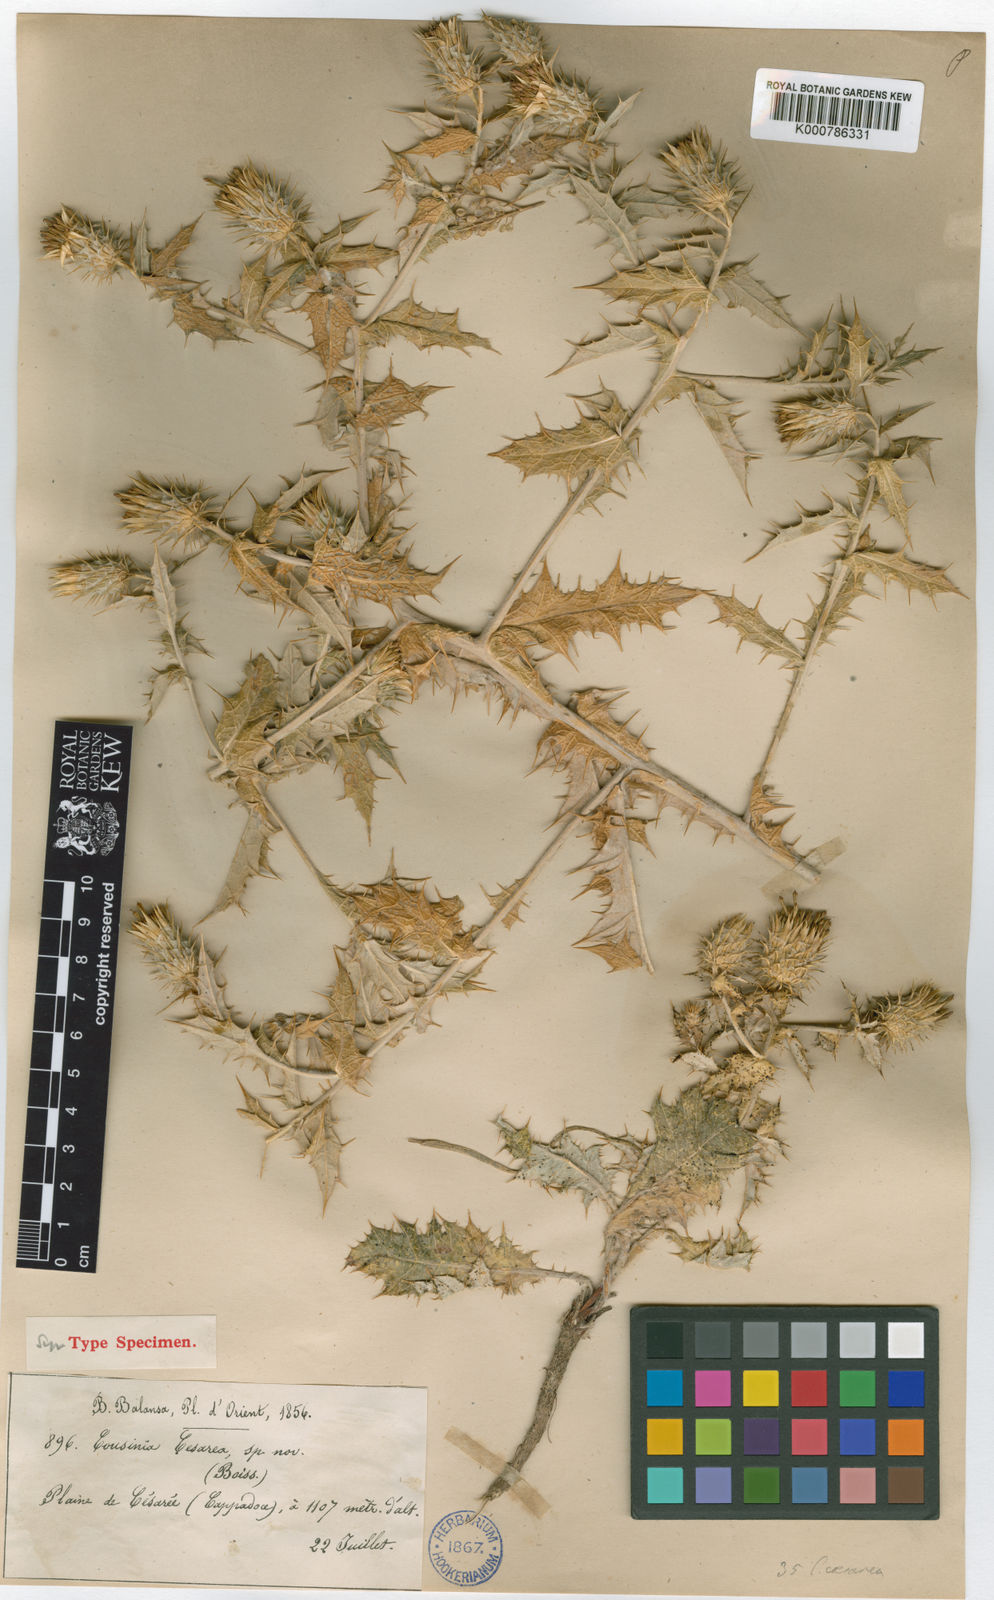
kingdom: Plantae
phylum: Tracheophyta
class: Magnoliopsida
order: Asterales
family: Asteraceae
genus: Cousinia
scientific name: Cousinia caesarea
